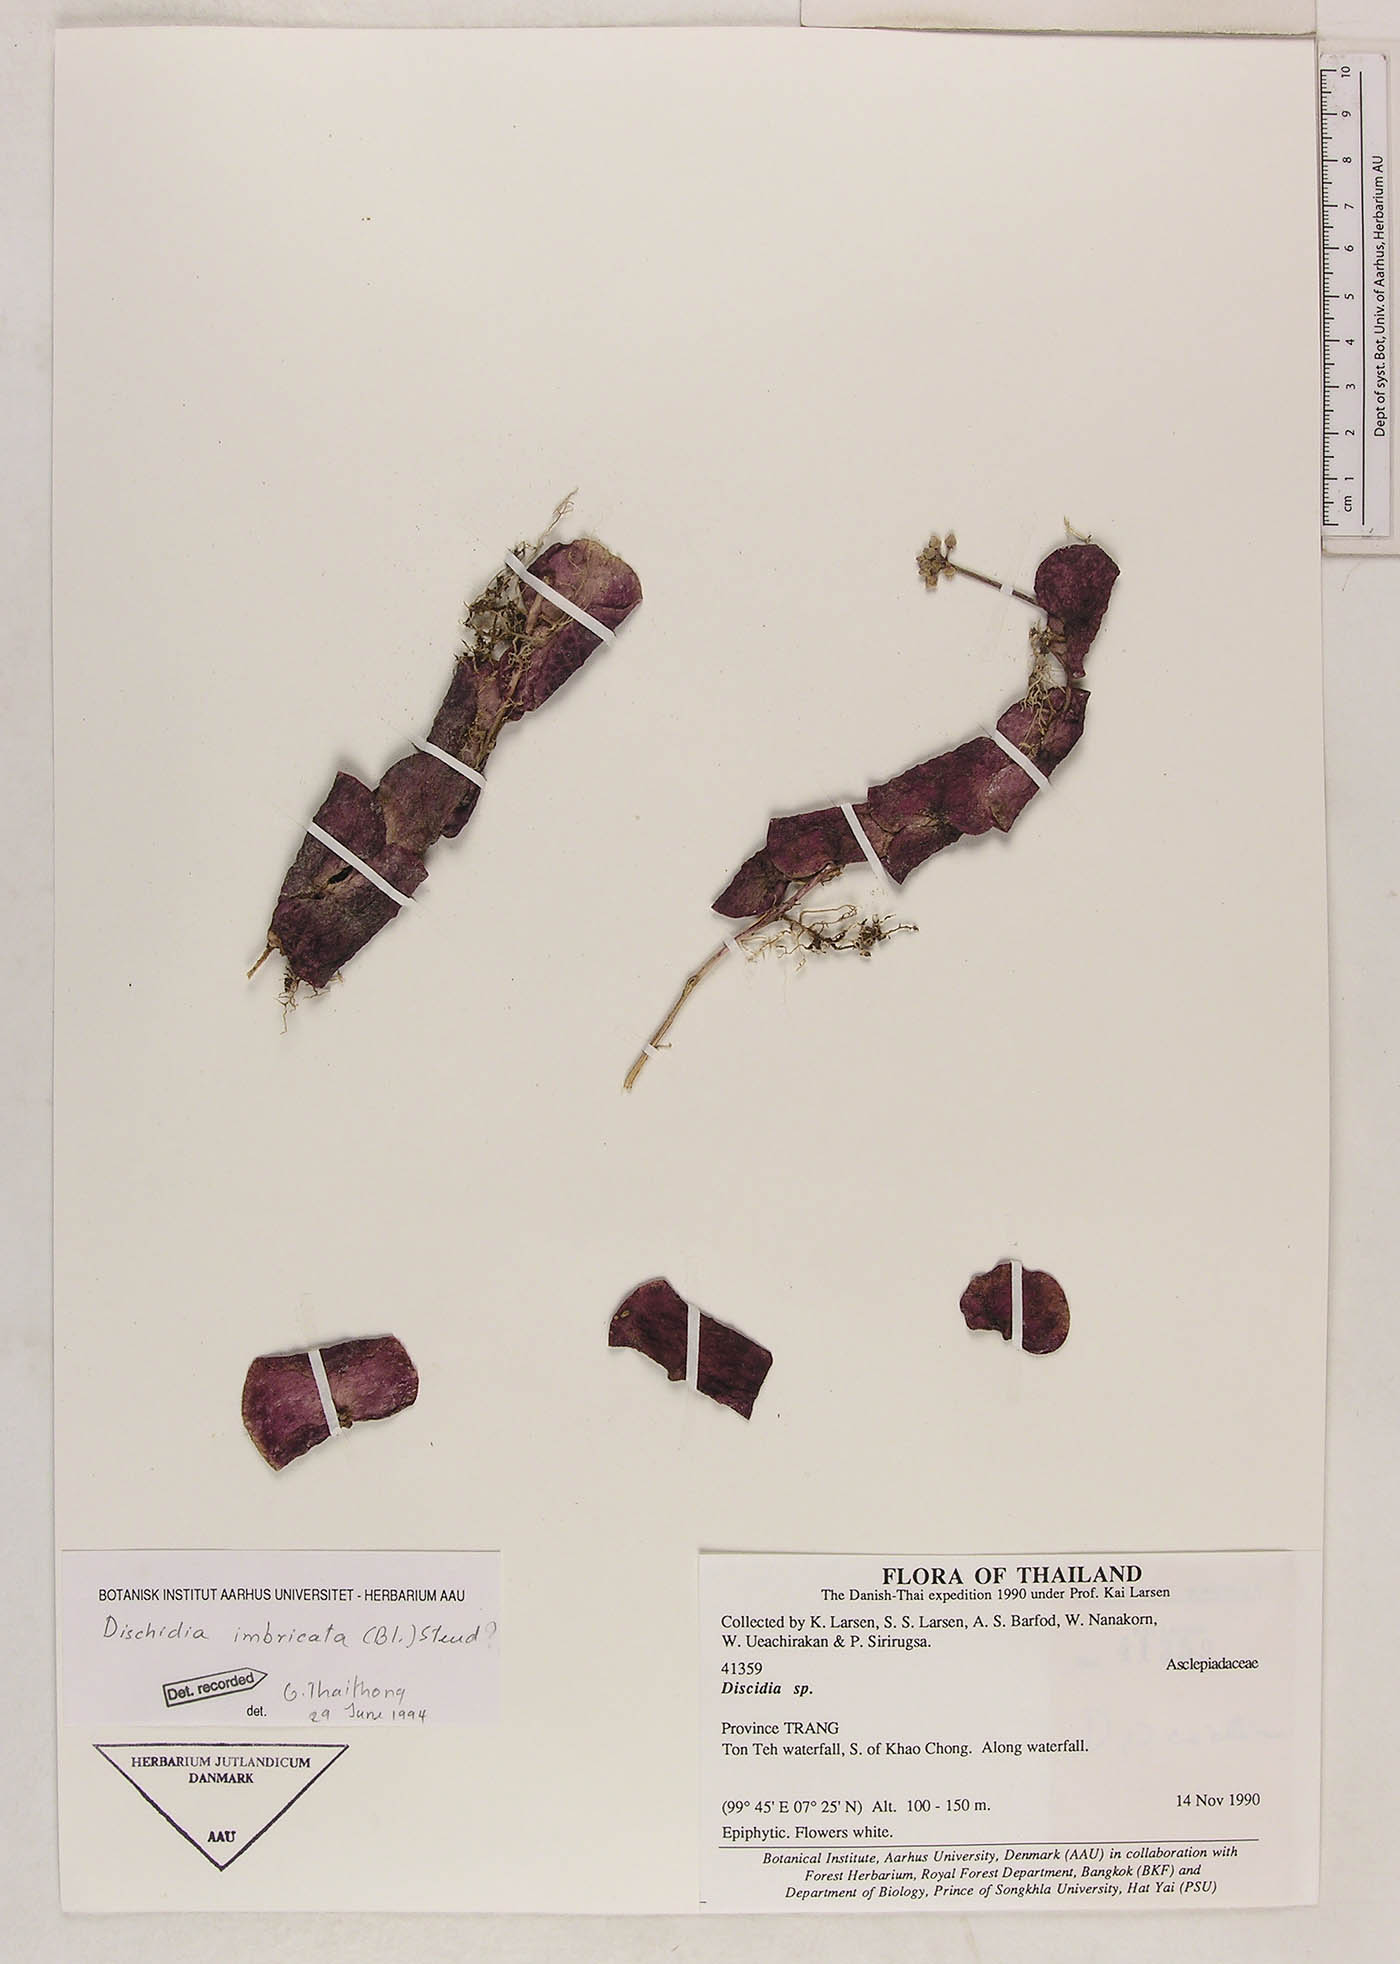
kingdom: Plantae
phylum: Tracheophyta
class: Magnoliopsida
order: Gentianales
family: Apocynaceae
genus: Dischidia
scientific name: Dischidia imbricata
